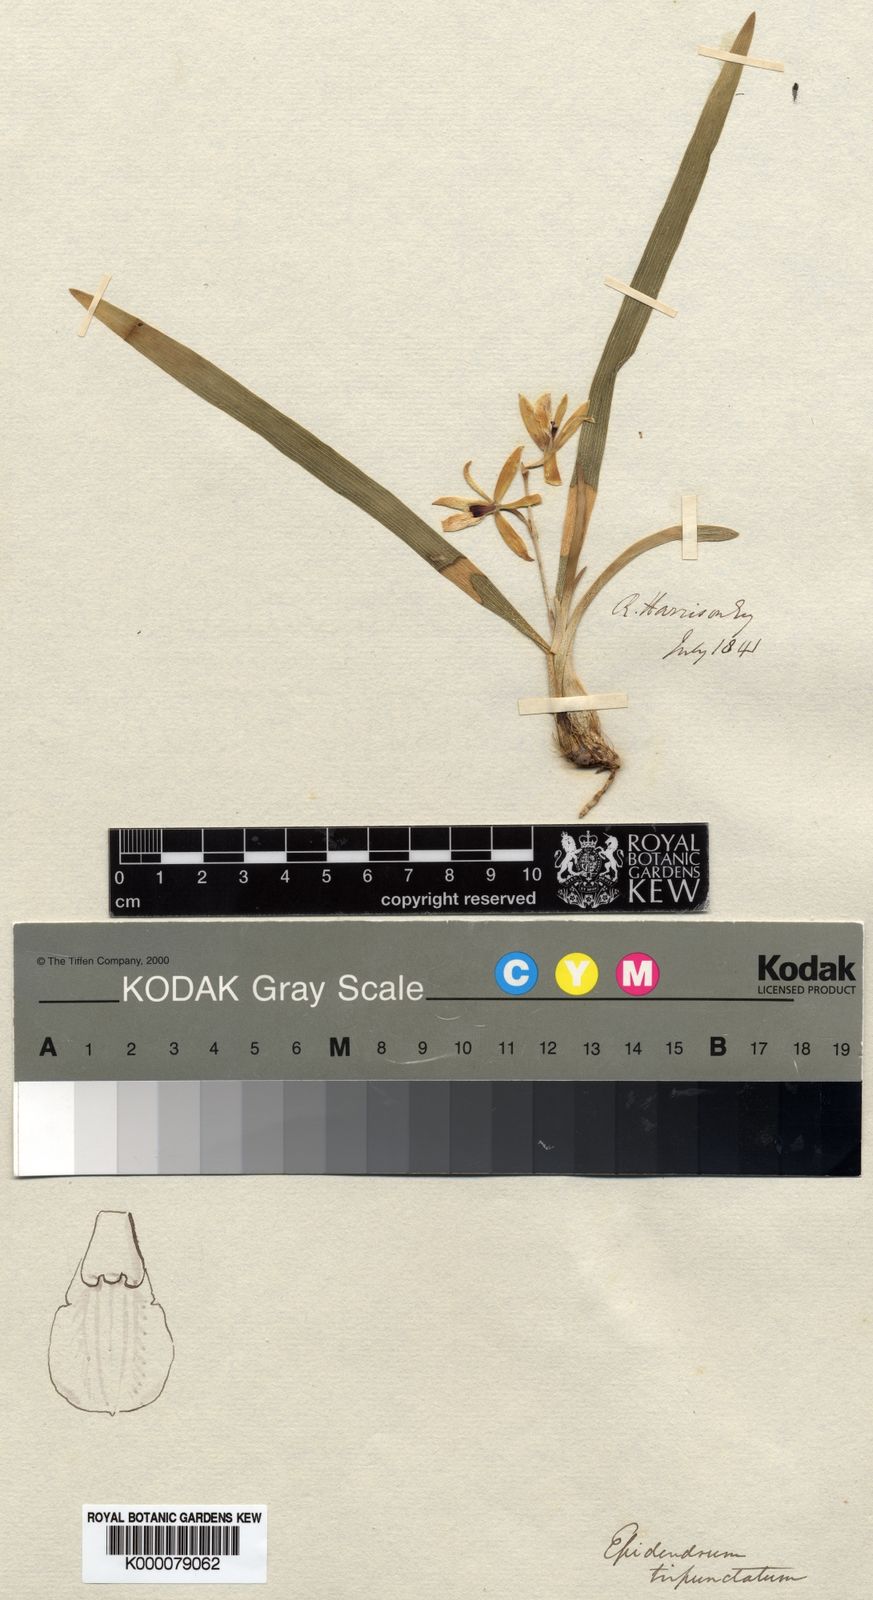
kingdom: Plantae
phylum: Tracheophyta
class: Liliopsida
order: Asparagales
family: Orchidaceae
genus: Prosthechea
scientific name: Prosthechea micropus
